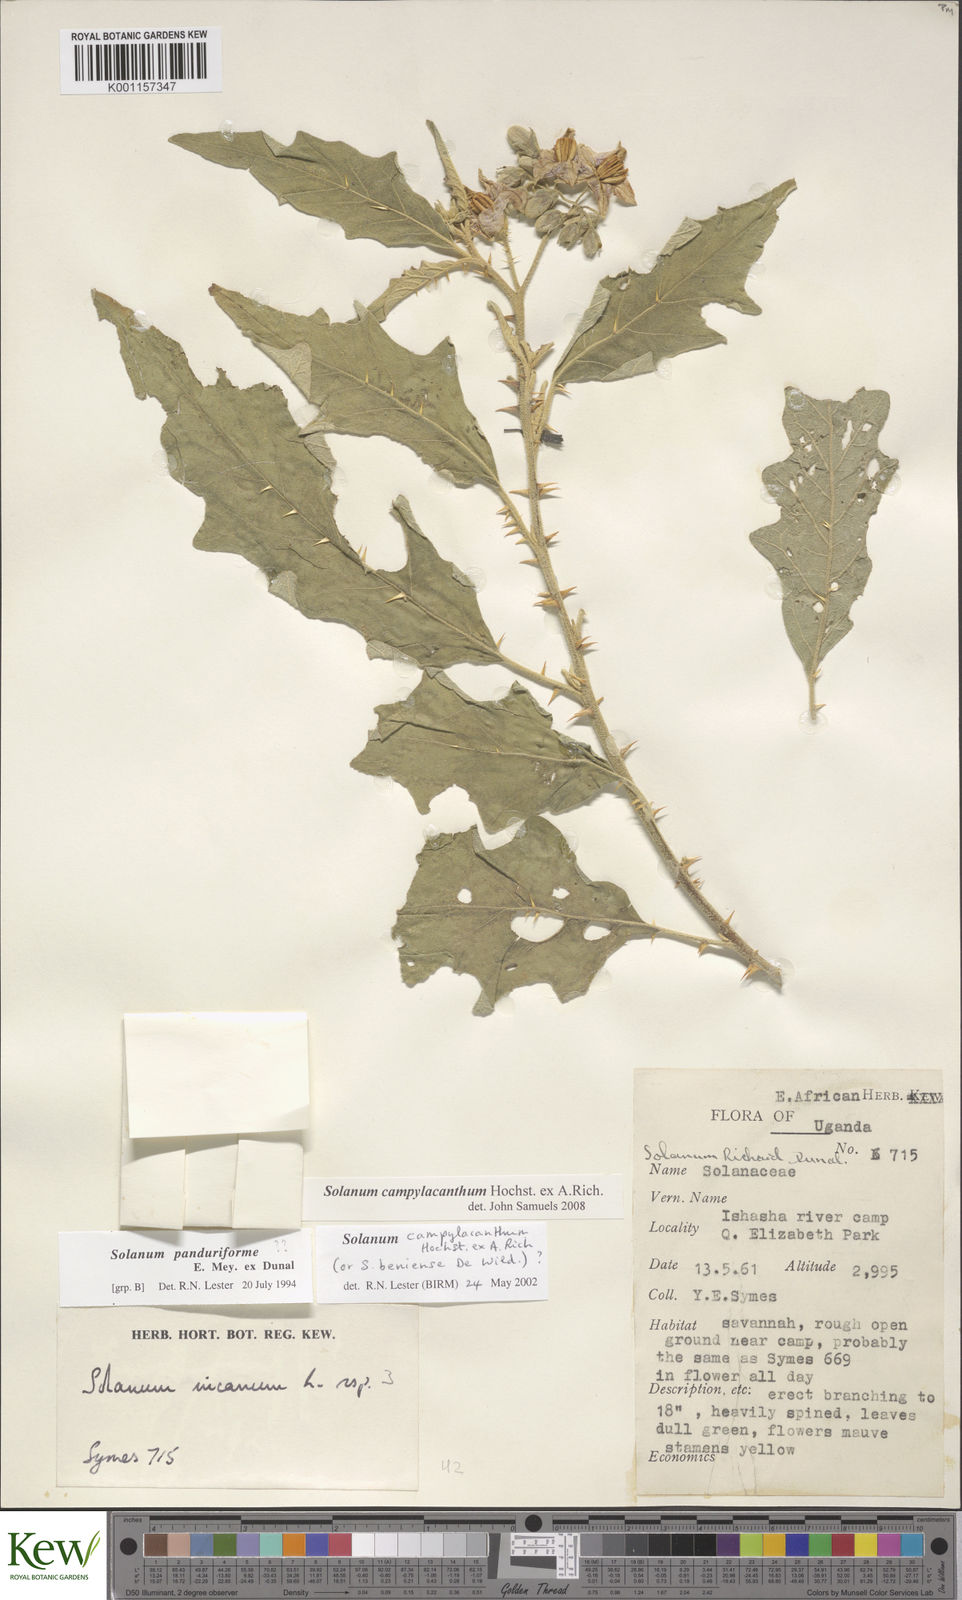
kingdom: Plantae
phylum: Tracheophyta
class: Magnoliopsida
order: Solanales
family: Solanaceae
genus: Solanum
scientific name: Solanum campylacanthum
